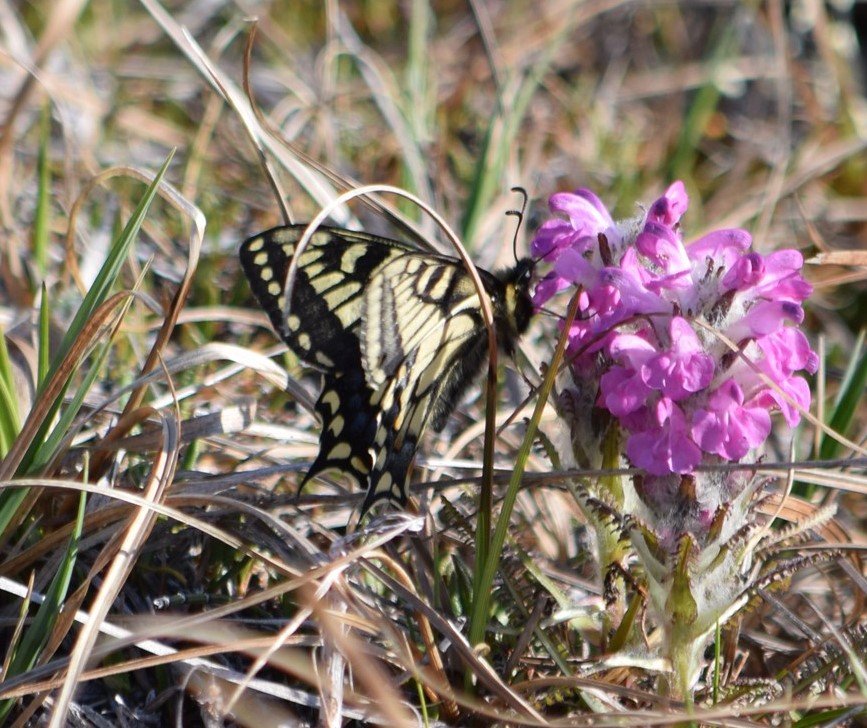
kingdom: Animalia
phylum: Arthropoda
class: Insecta
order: Lepidoptera
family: Papilionidae
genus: Papilio
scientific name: Papilio machaon
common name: Old World Swallowtail
